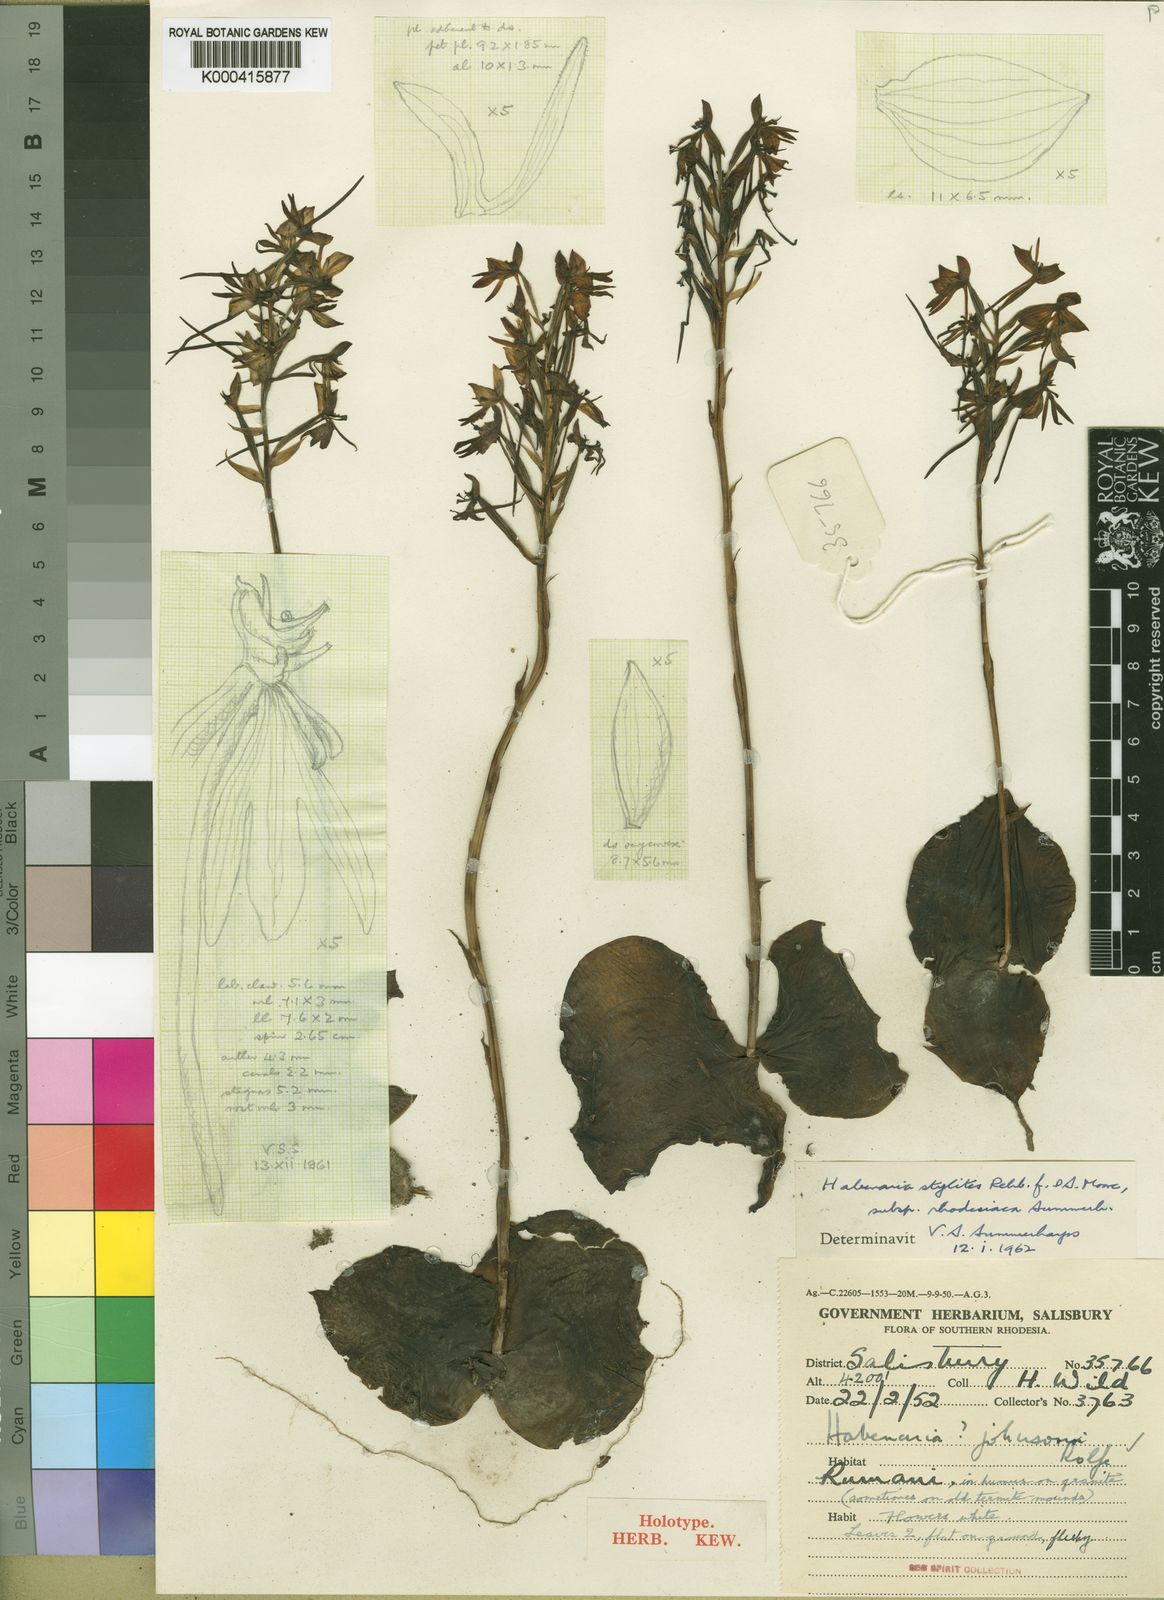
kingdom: Plantae
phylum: Tracheophyta
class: Liliopsida
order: Asparagales
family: Orchidaceae
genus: Habenaria
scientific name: Habenaria stylites
